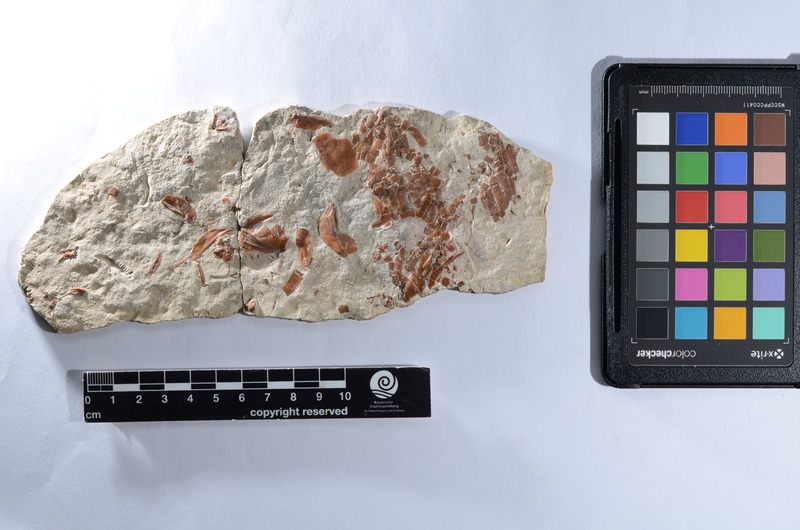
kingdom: Animalia
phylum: Chordata
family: Macrosemiidae
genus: Macrosemius
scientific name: Macrosemius rostratus
